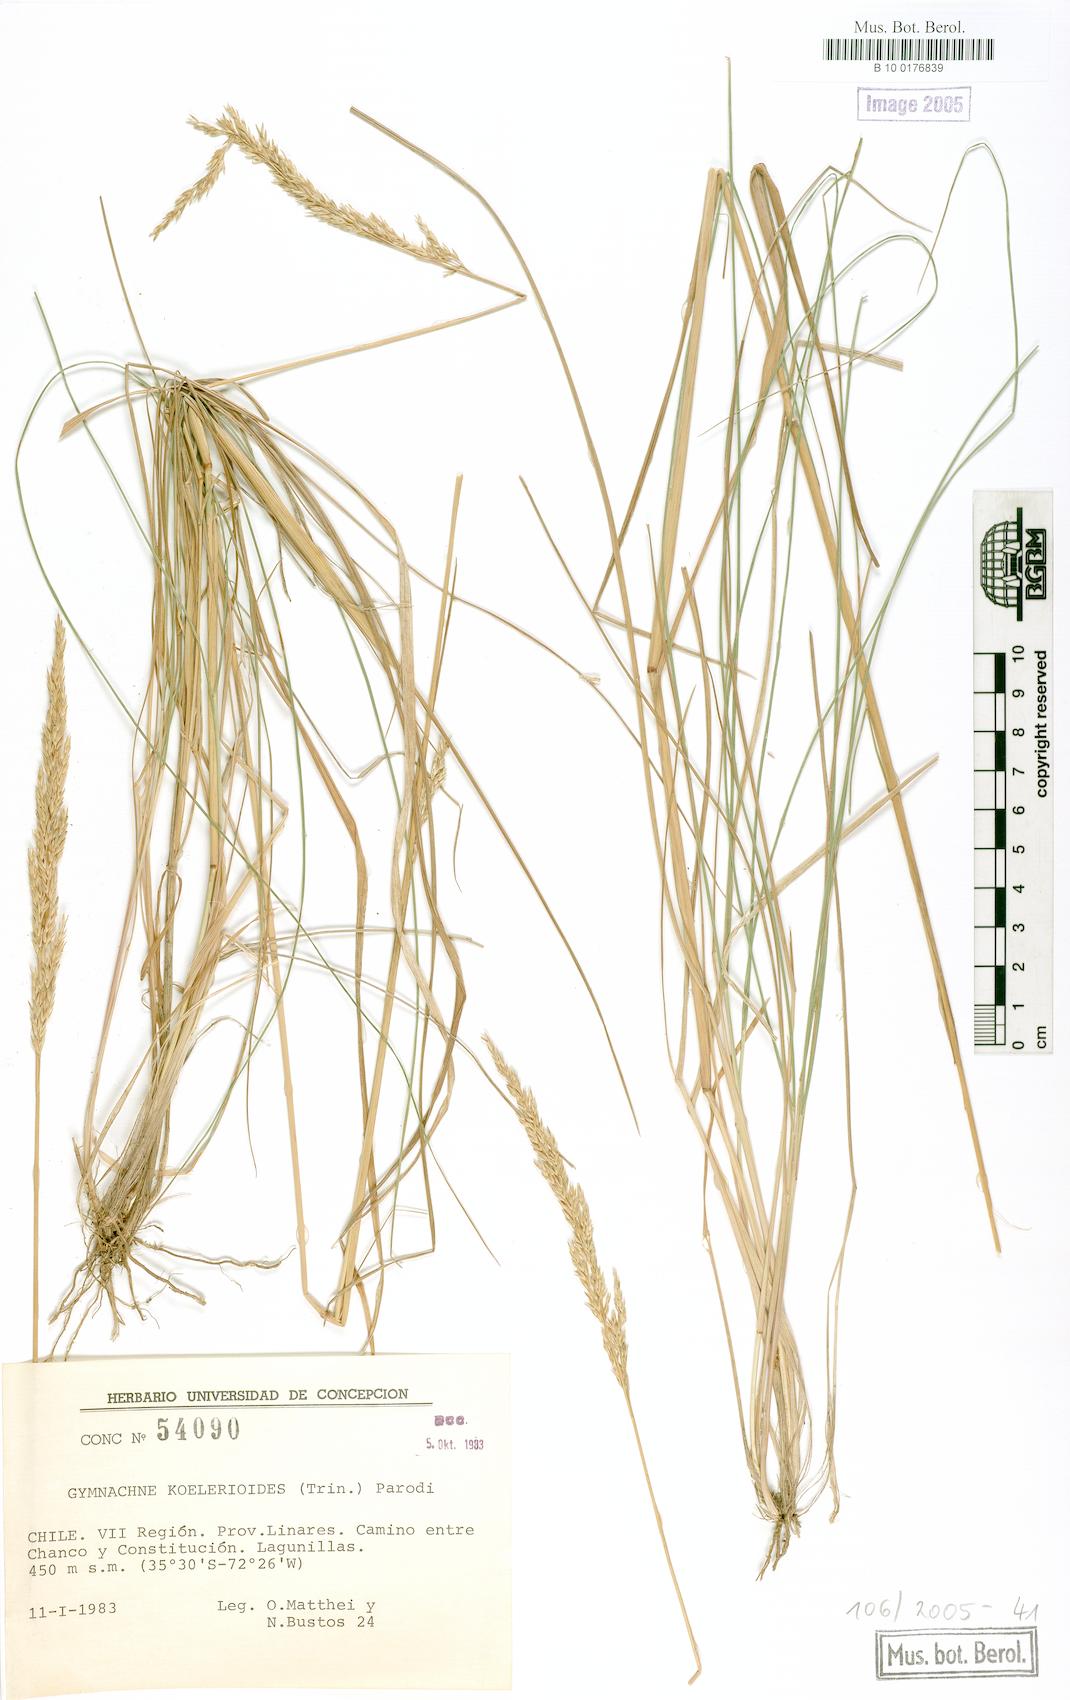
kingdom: Plantae
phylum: Tracheophyta
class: Liliopsida
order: Poales
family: Poaceae
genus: Chascolytrum
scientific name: Chascolytrum koelerioides
